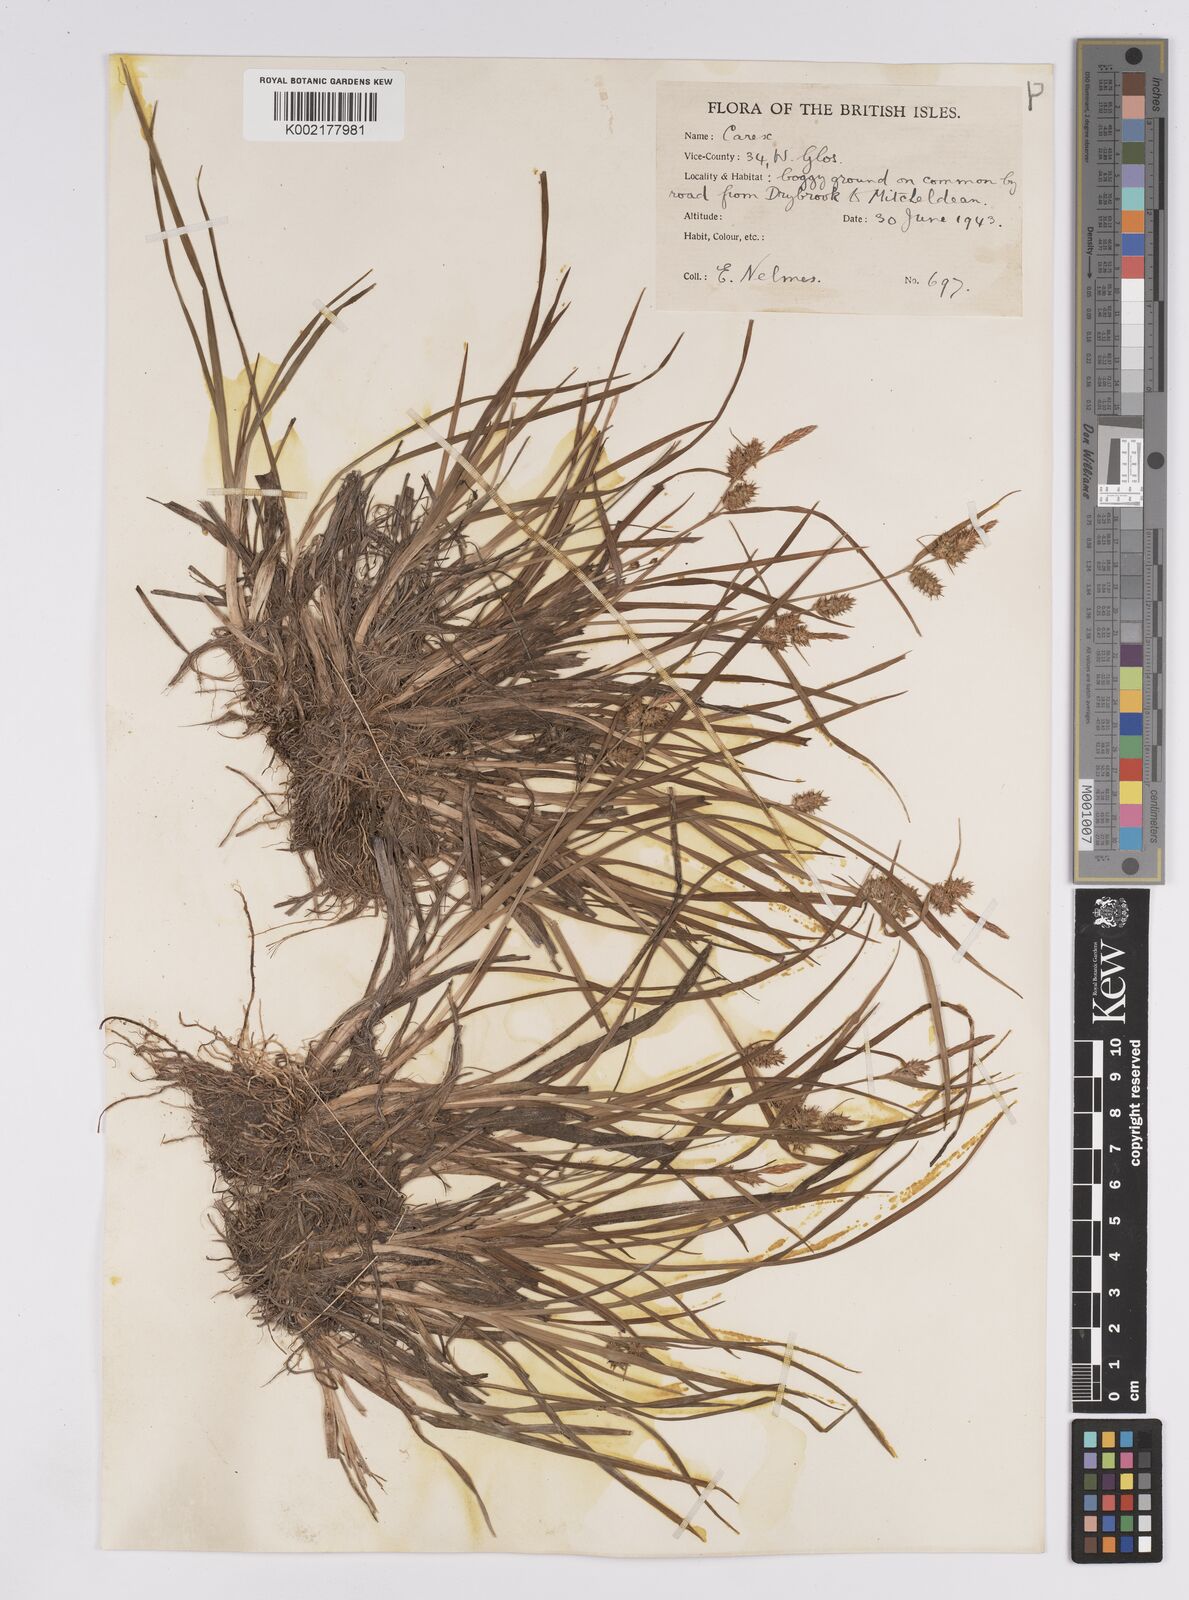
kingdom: Plantae
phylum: Tracheophyta
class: Liliopsida
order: Poales
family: Cyperaceae
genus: Carex
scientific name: Carex demissa
